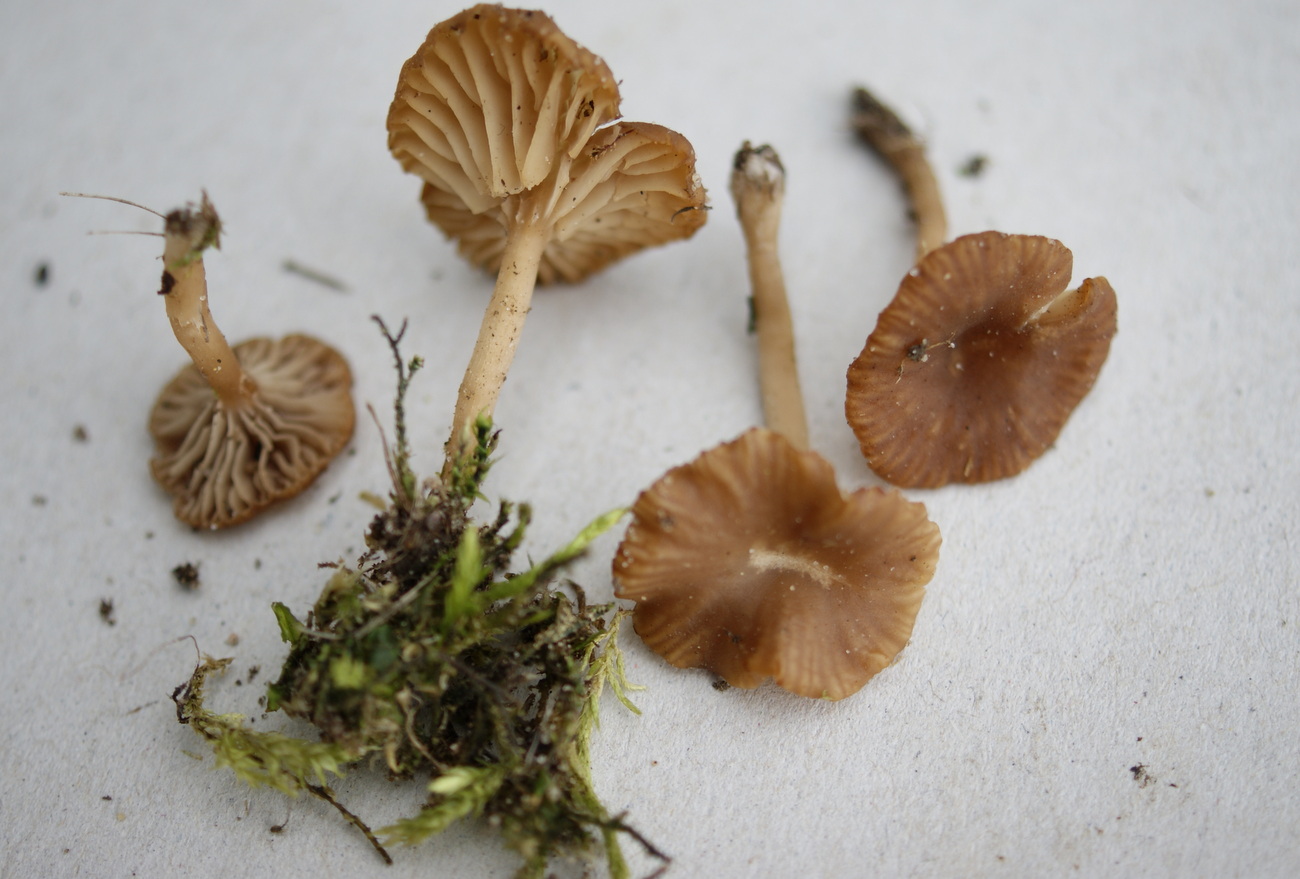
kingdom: Fungi
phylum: Basidiomycota
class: Agaricomycetes
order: Agaricales
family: Tricholomataceae
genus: Omphalina
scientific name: Omphalina pyxidata
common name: rødbrun navlehat
